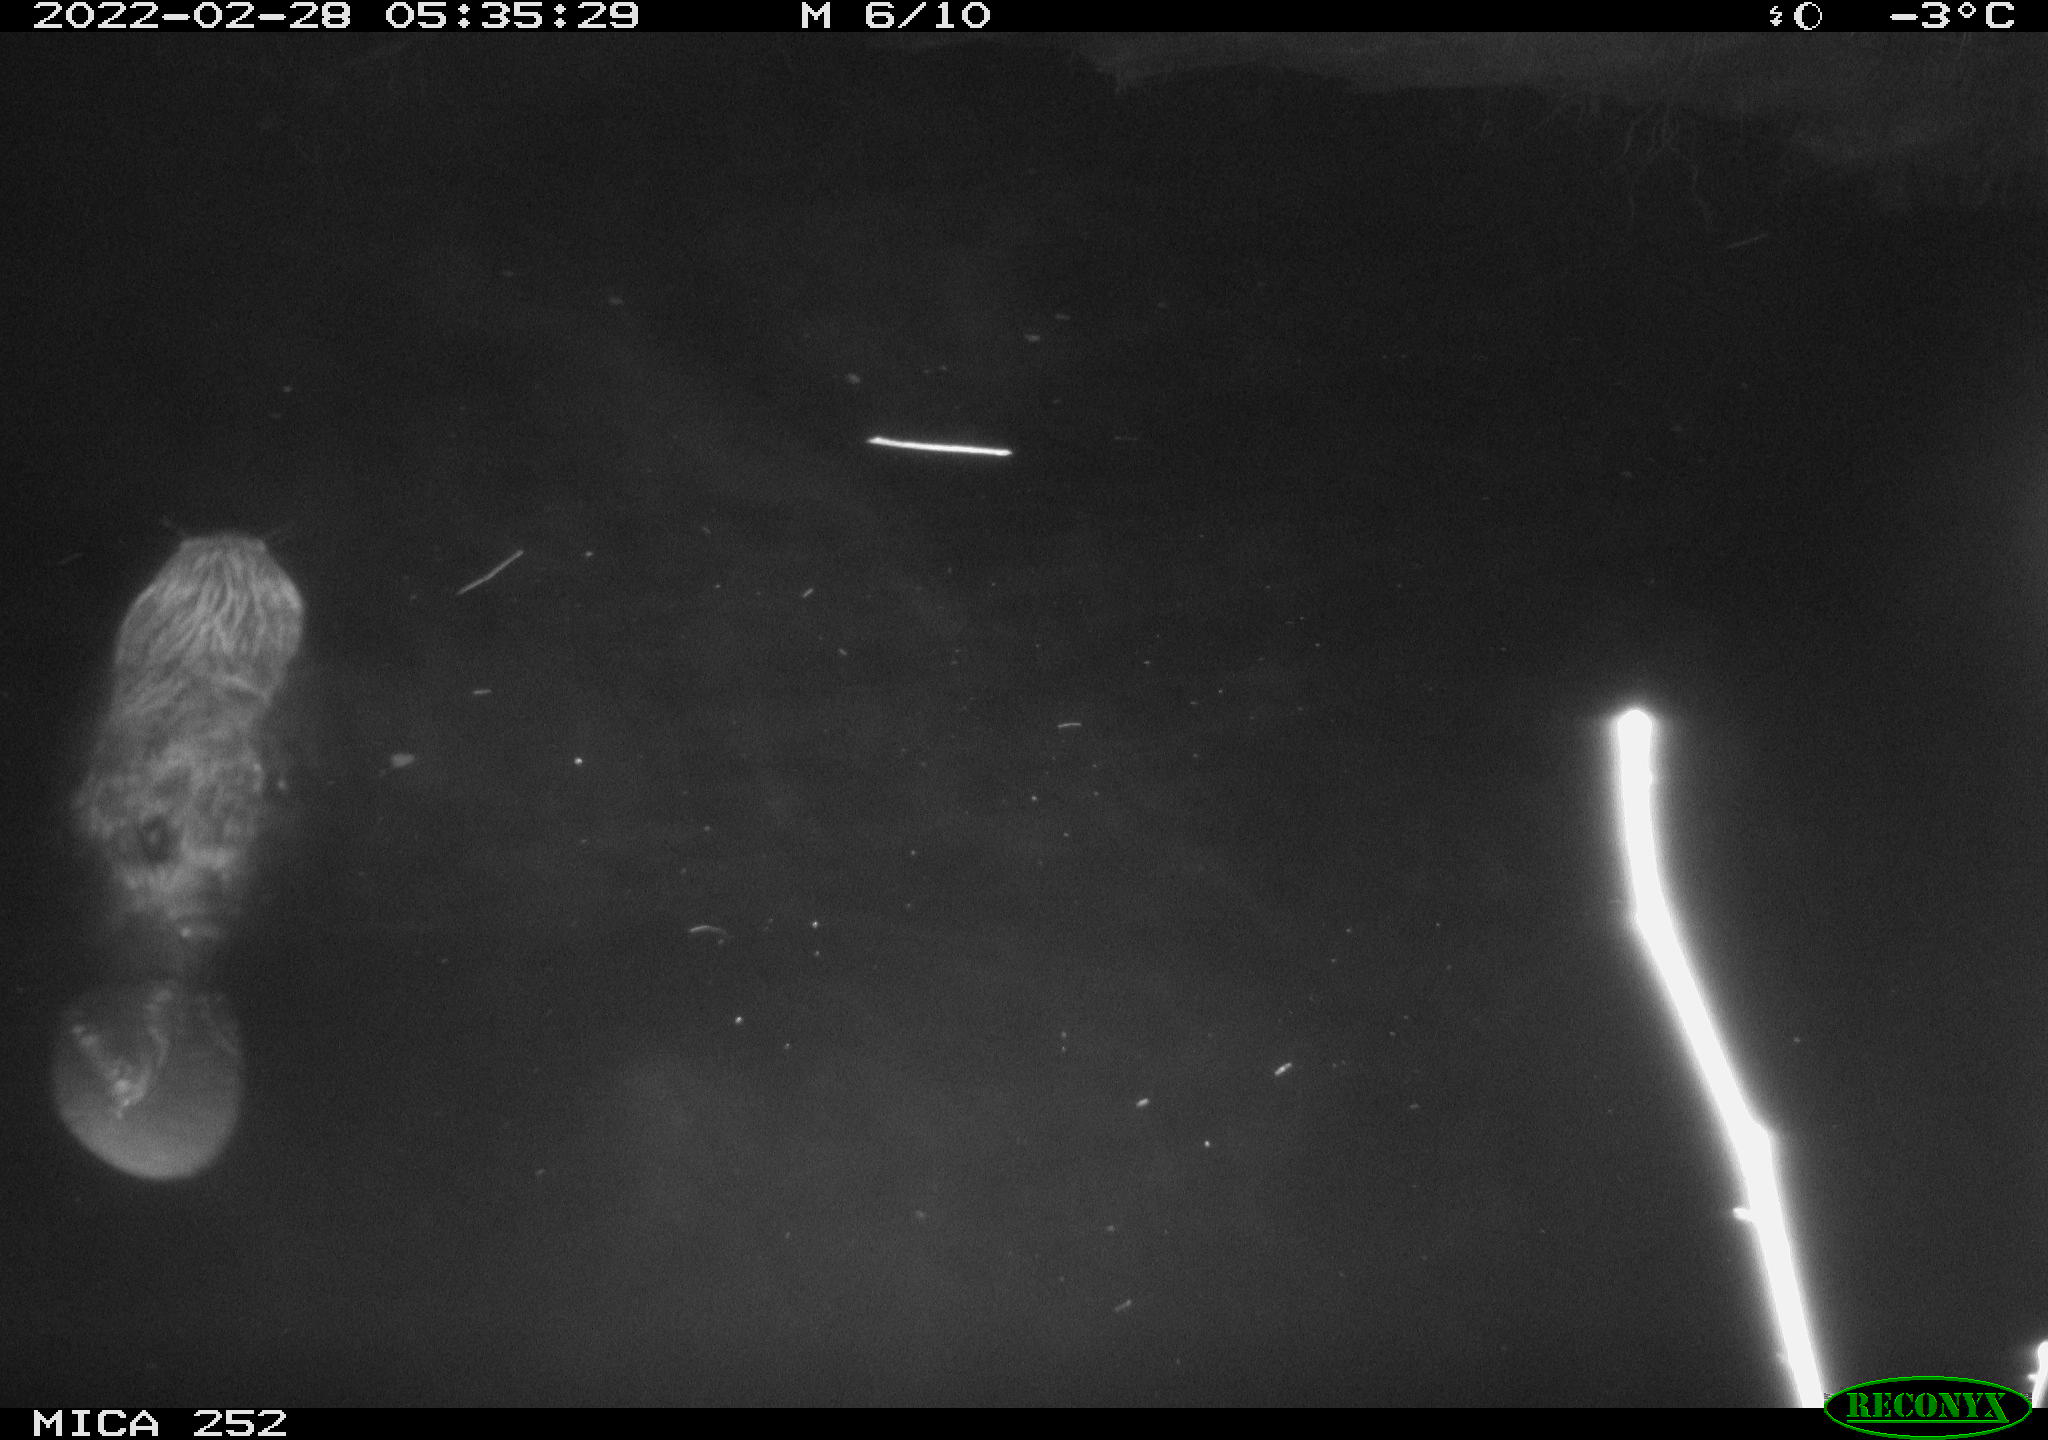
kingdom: Animalia
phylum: Chordata
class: Mammalia
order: Rodentia
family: Castoridae
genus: Castor
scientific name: Castor fiber
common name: Eurasian beaver
